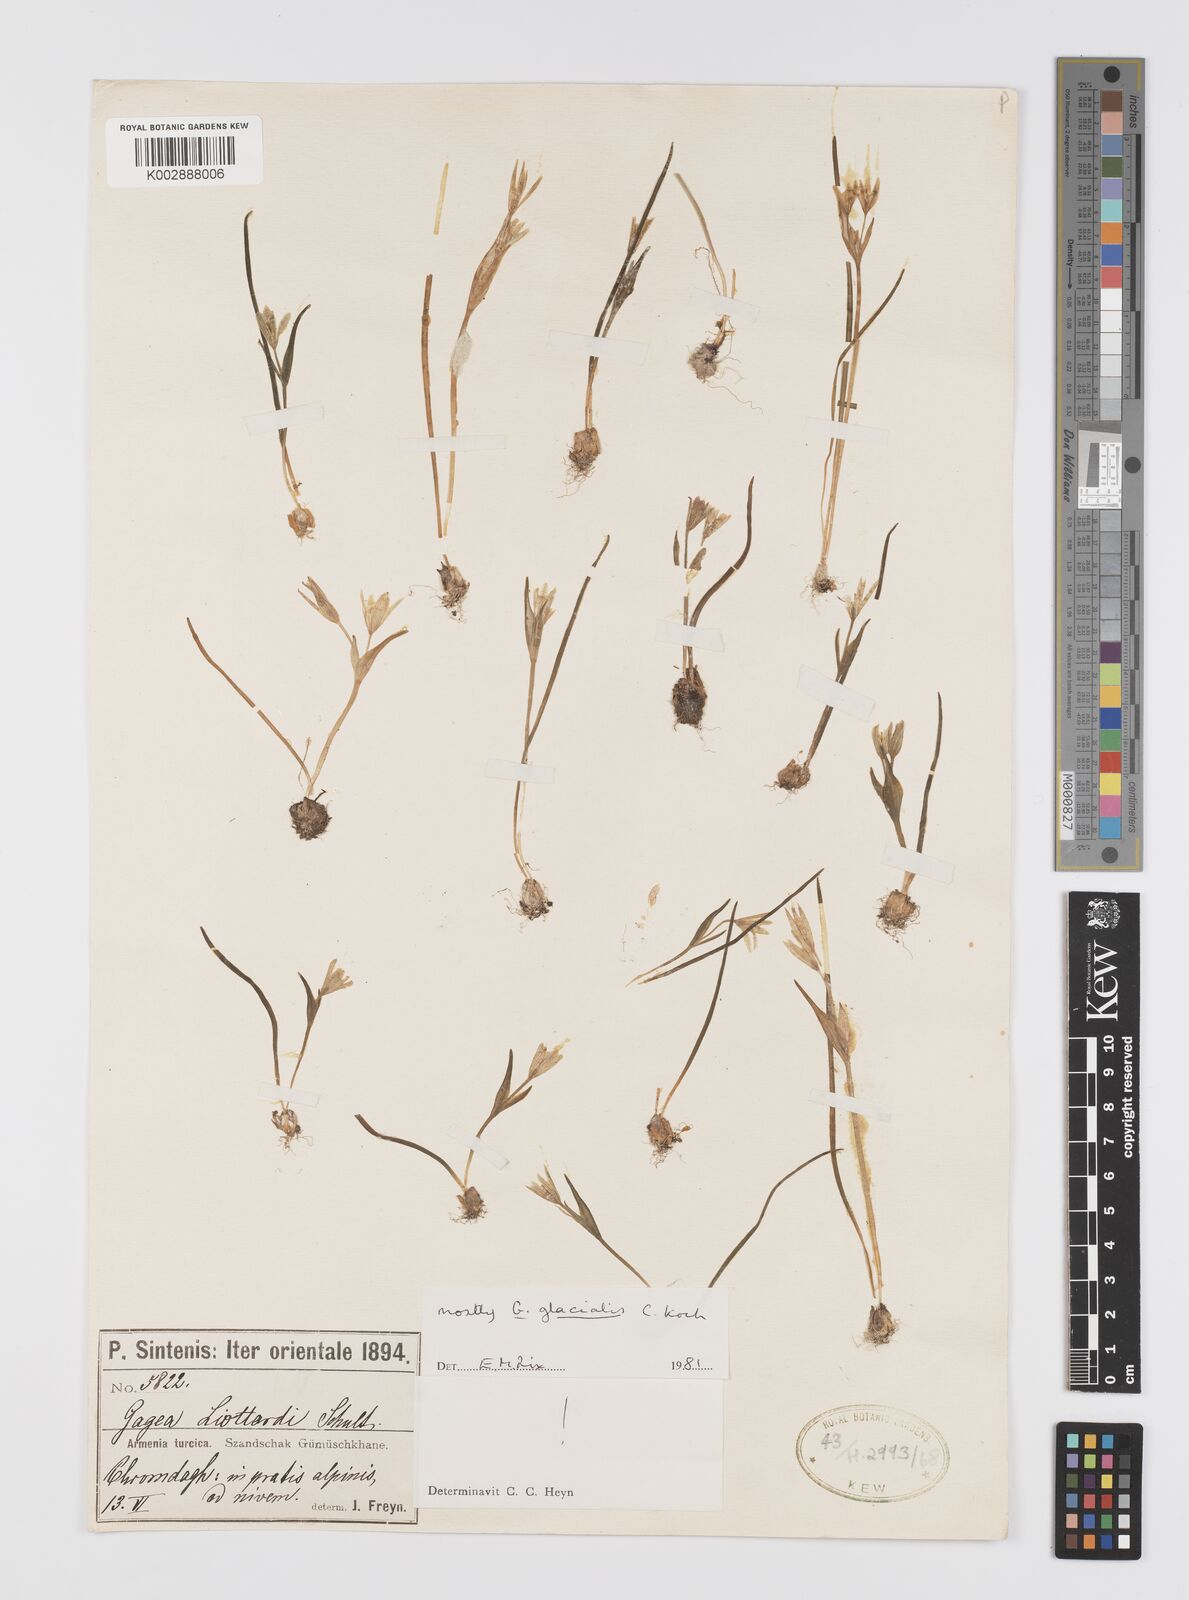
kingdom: Plantae
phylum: Tracheophyta
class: Liliopsida
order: Liliales
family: Liliaceae
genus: Gagea
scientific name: Gagea glacialis
